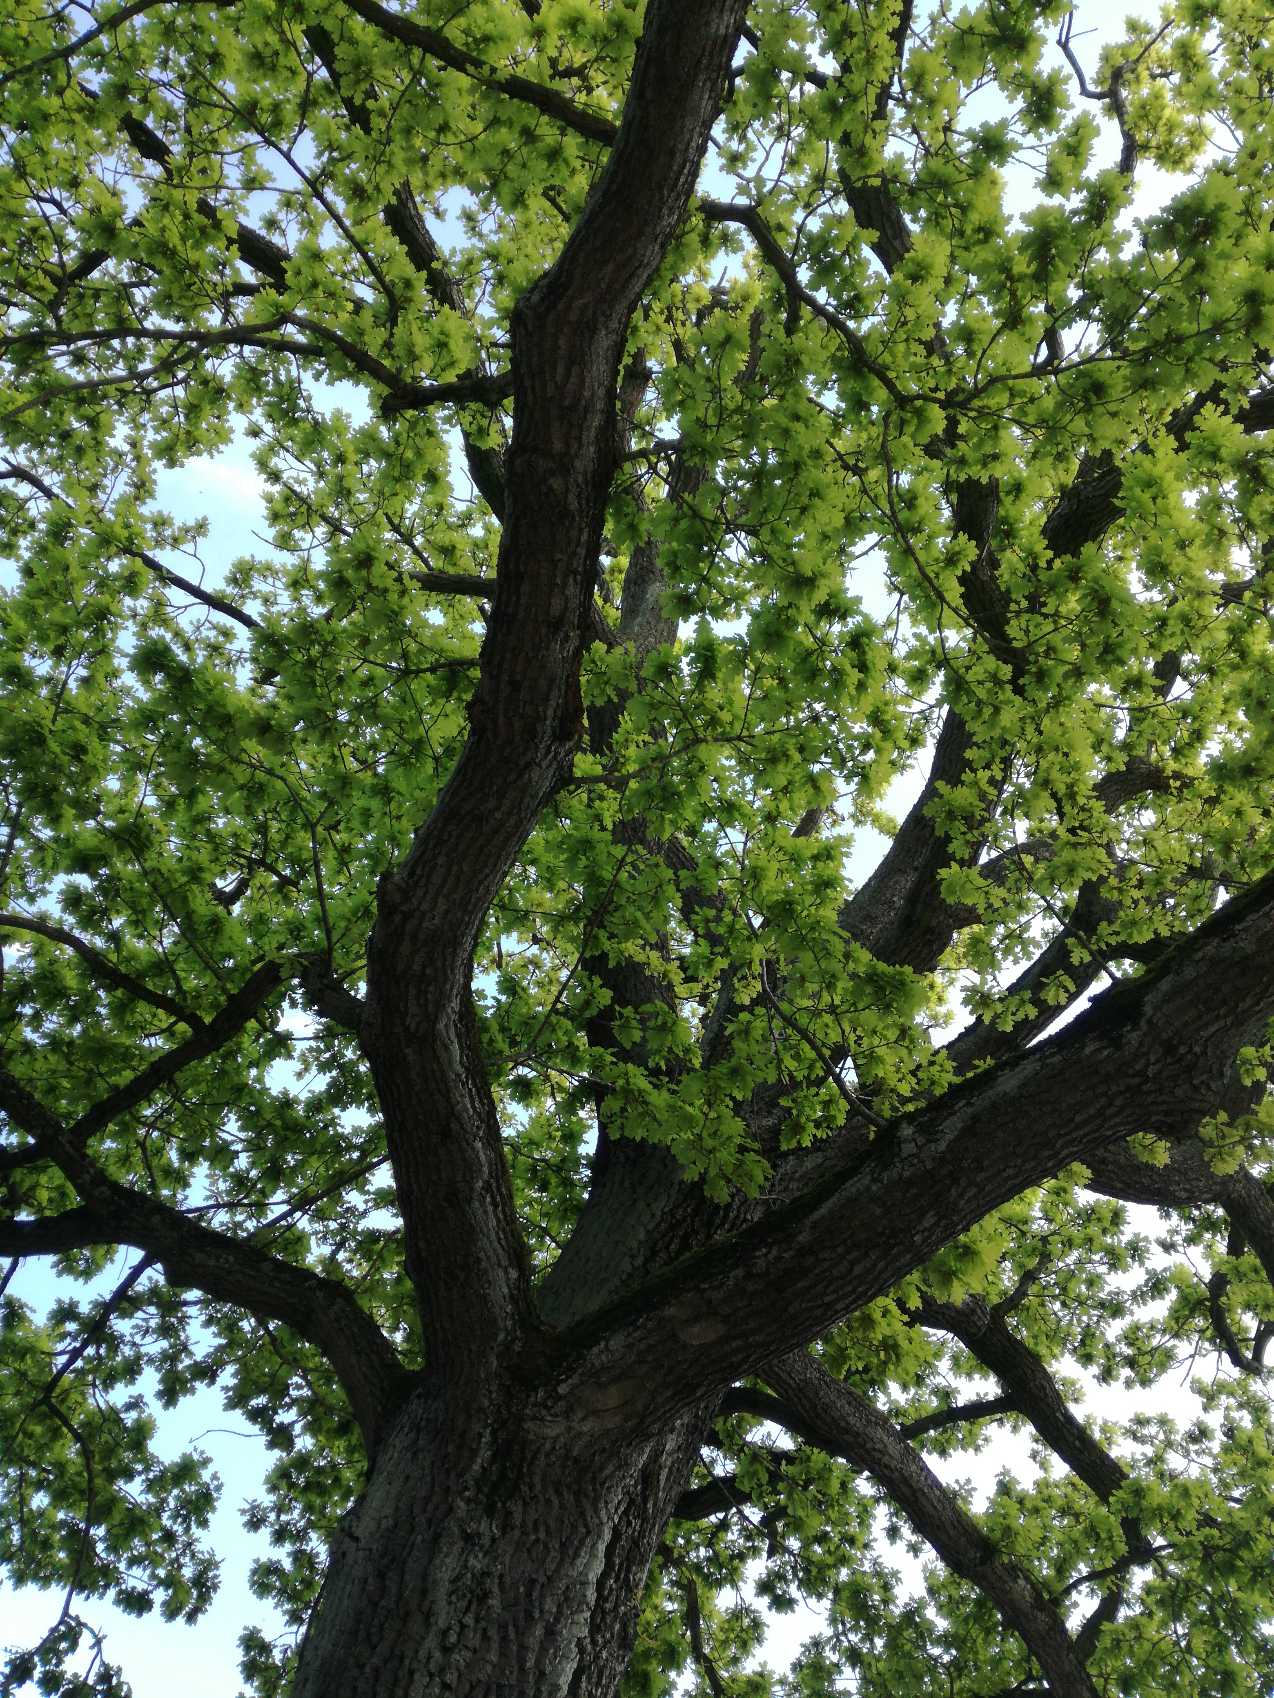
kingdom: Plantae
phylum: Tracheophyta
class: Magnoliopsida
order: Fagales
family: Fagaceae
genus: Quercus
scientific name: Quercus robur
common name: Stilk-eg/almindelig eg
